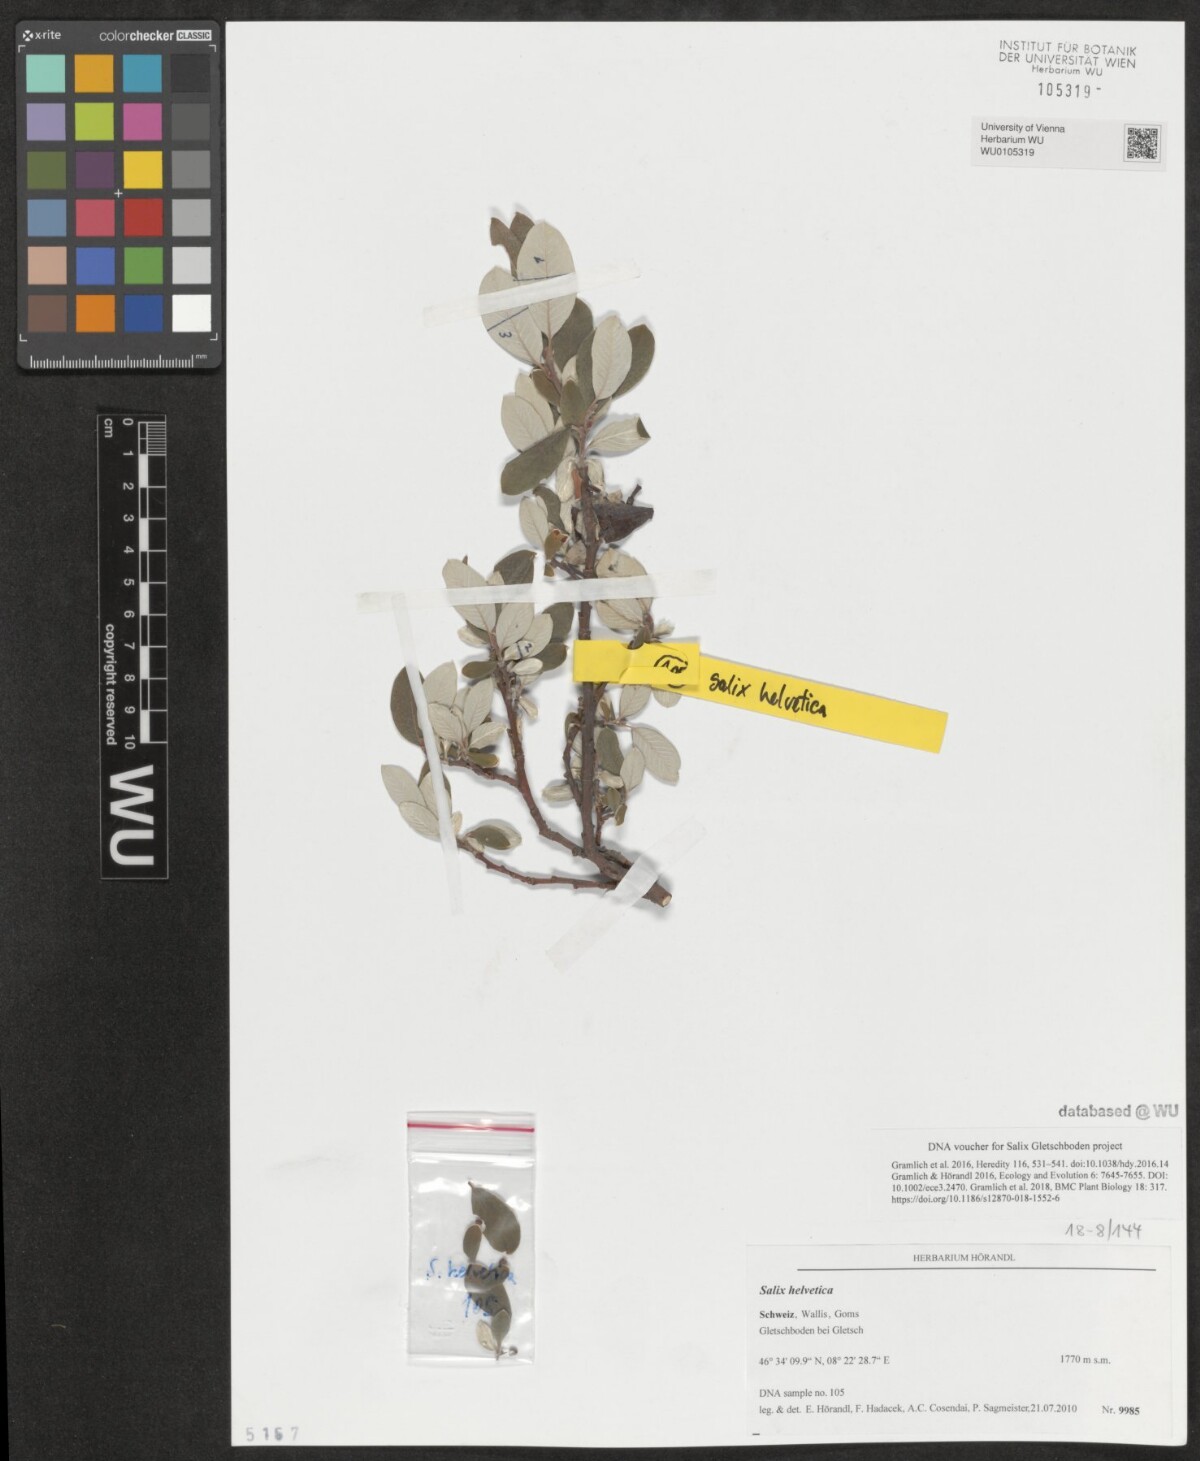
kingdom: Plantae
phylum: Tracheophyta
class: Magnoliopsida
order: Malpighiales
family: Salicaceae
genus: Salix
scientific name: Salix helvetica
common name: Swiss willow
